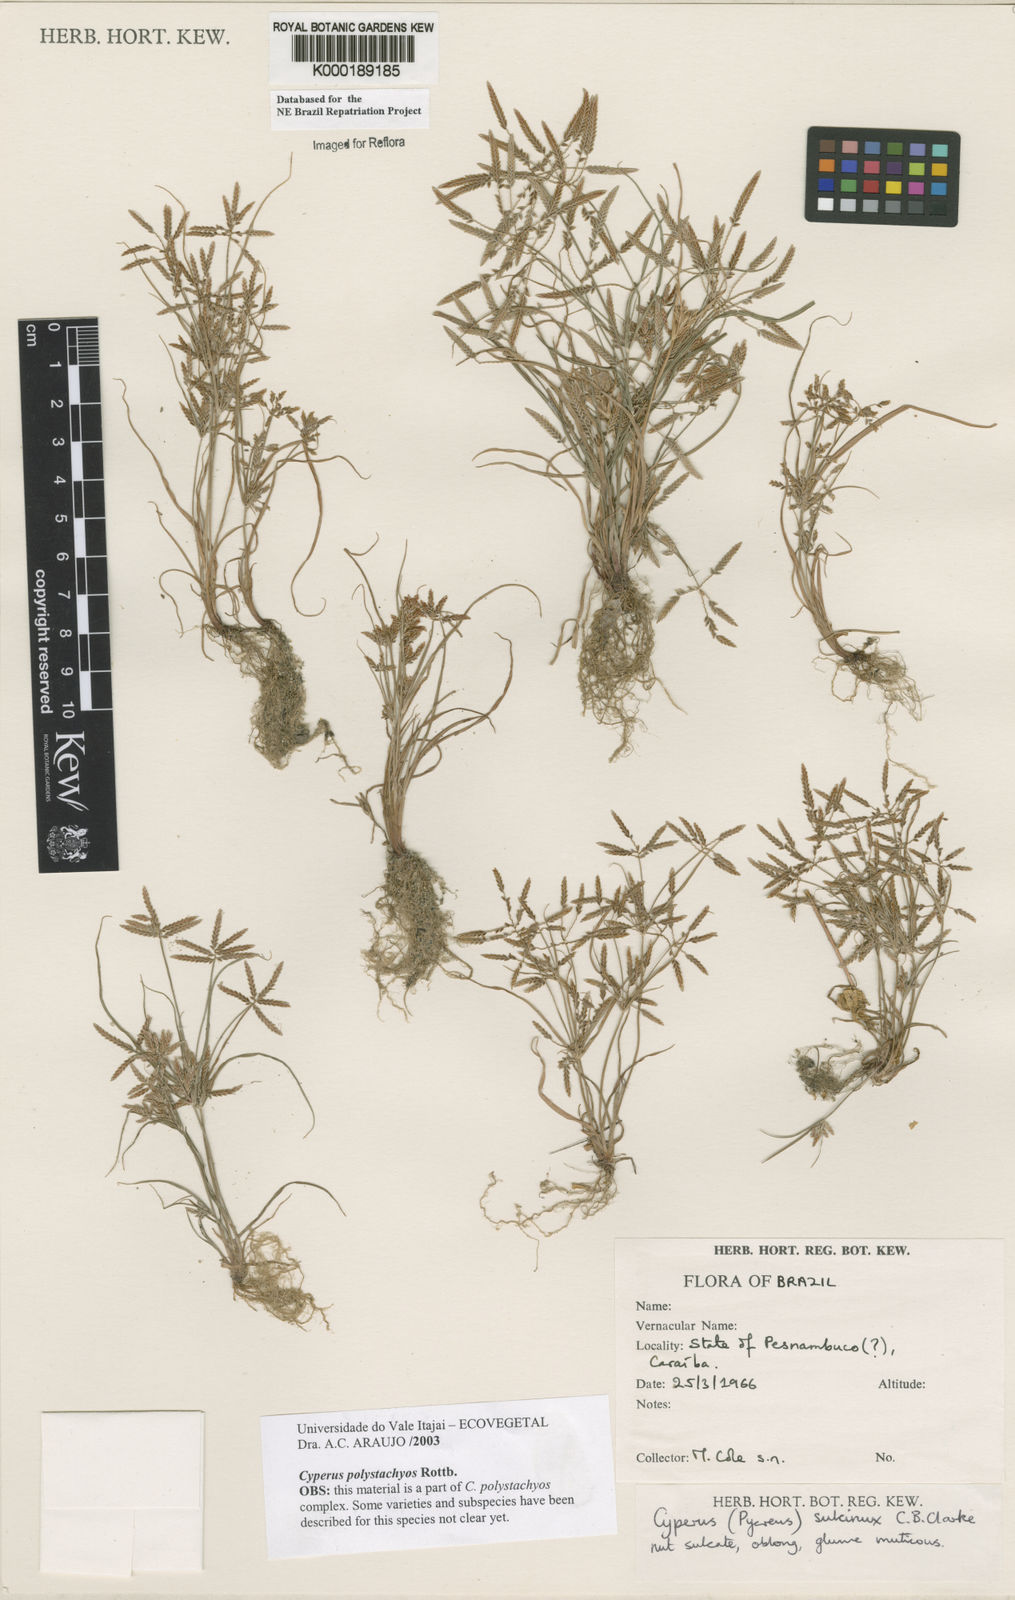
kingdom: Plantae
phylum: Tracheophyta
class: Liliopsida
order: Poales
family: Cyperaceae
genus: Cyperus
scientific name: Cyperus polystachyos
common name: Bunchy flat sedge
